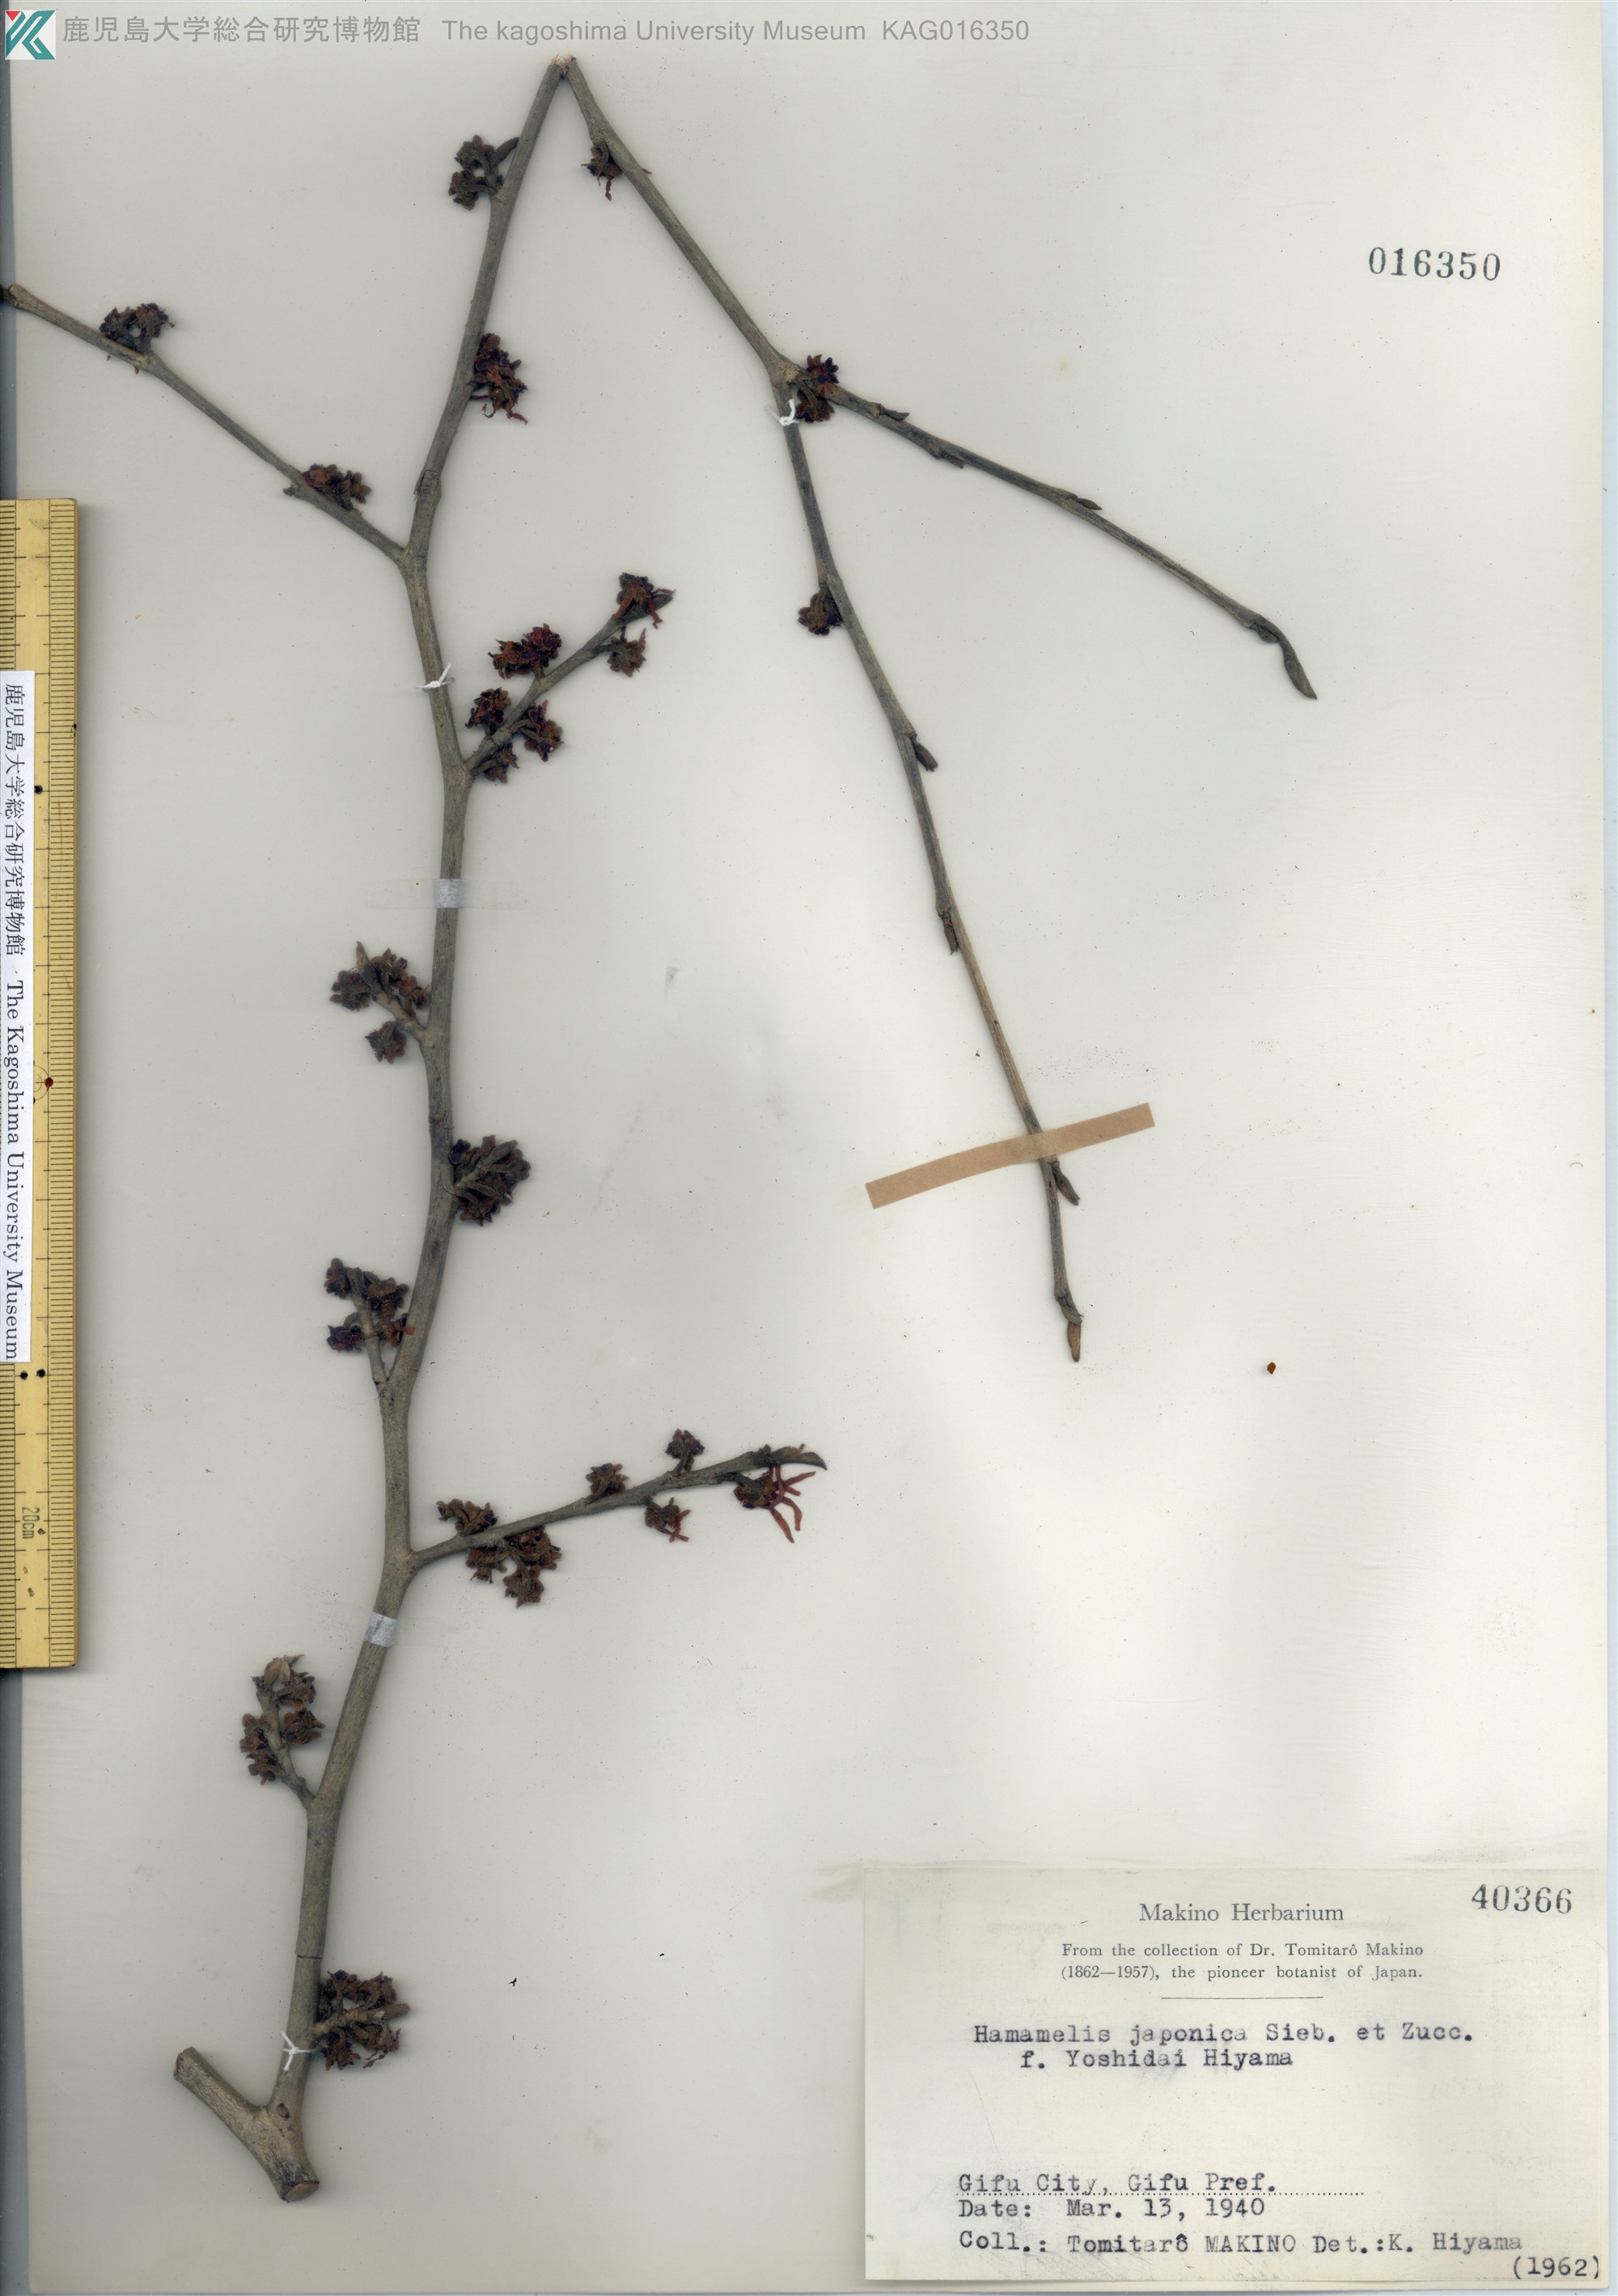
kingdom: Plantae
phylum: Tracheophyta
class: Magnoliopsida
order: Saxifragales
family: Hamamelidaceae
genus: Hamamelis
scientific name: Hamamelis
